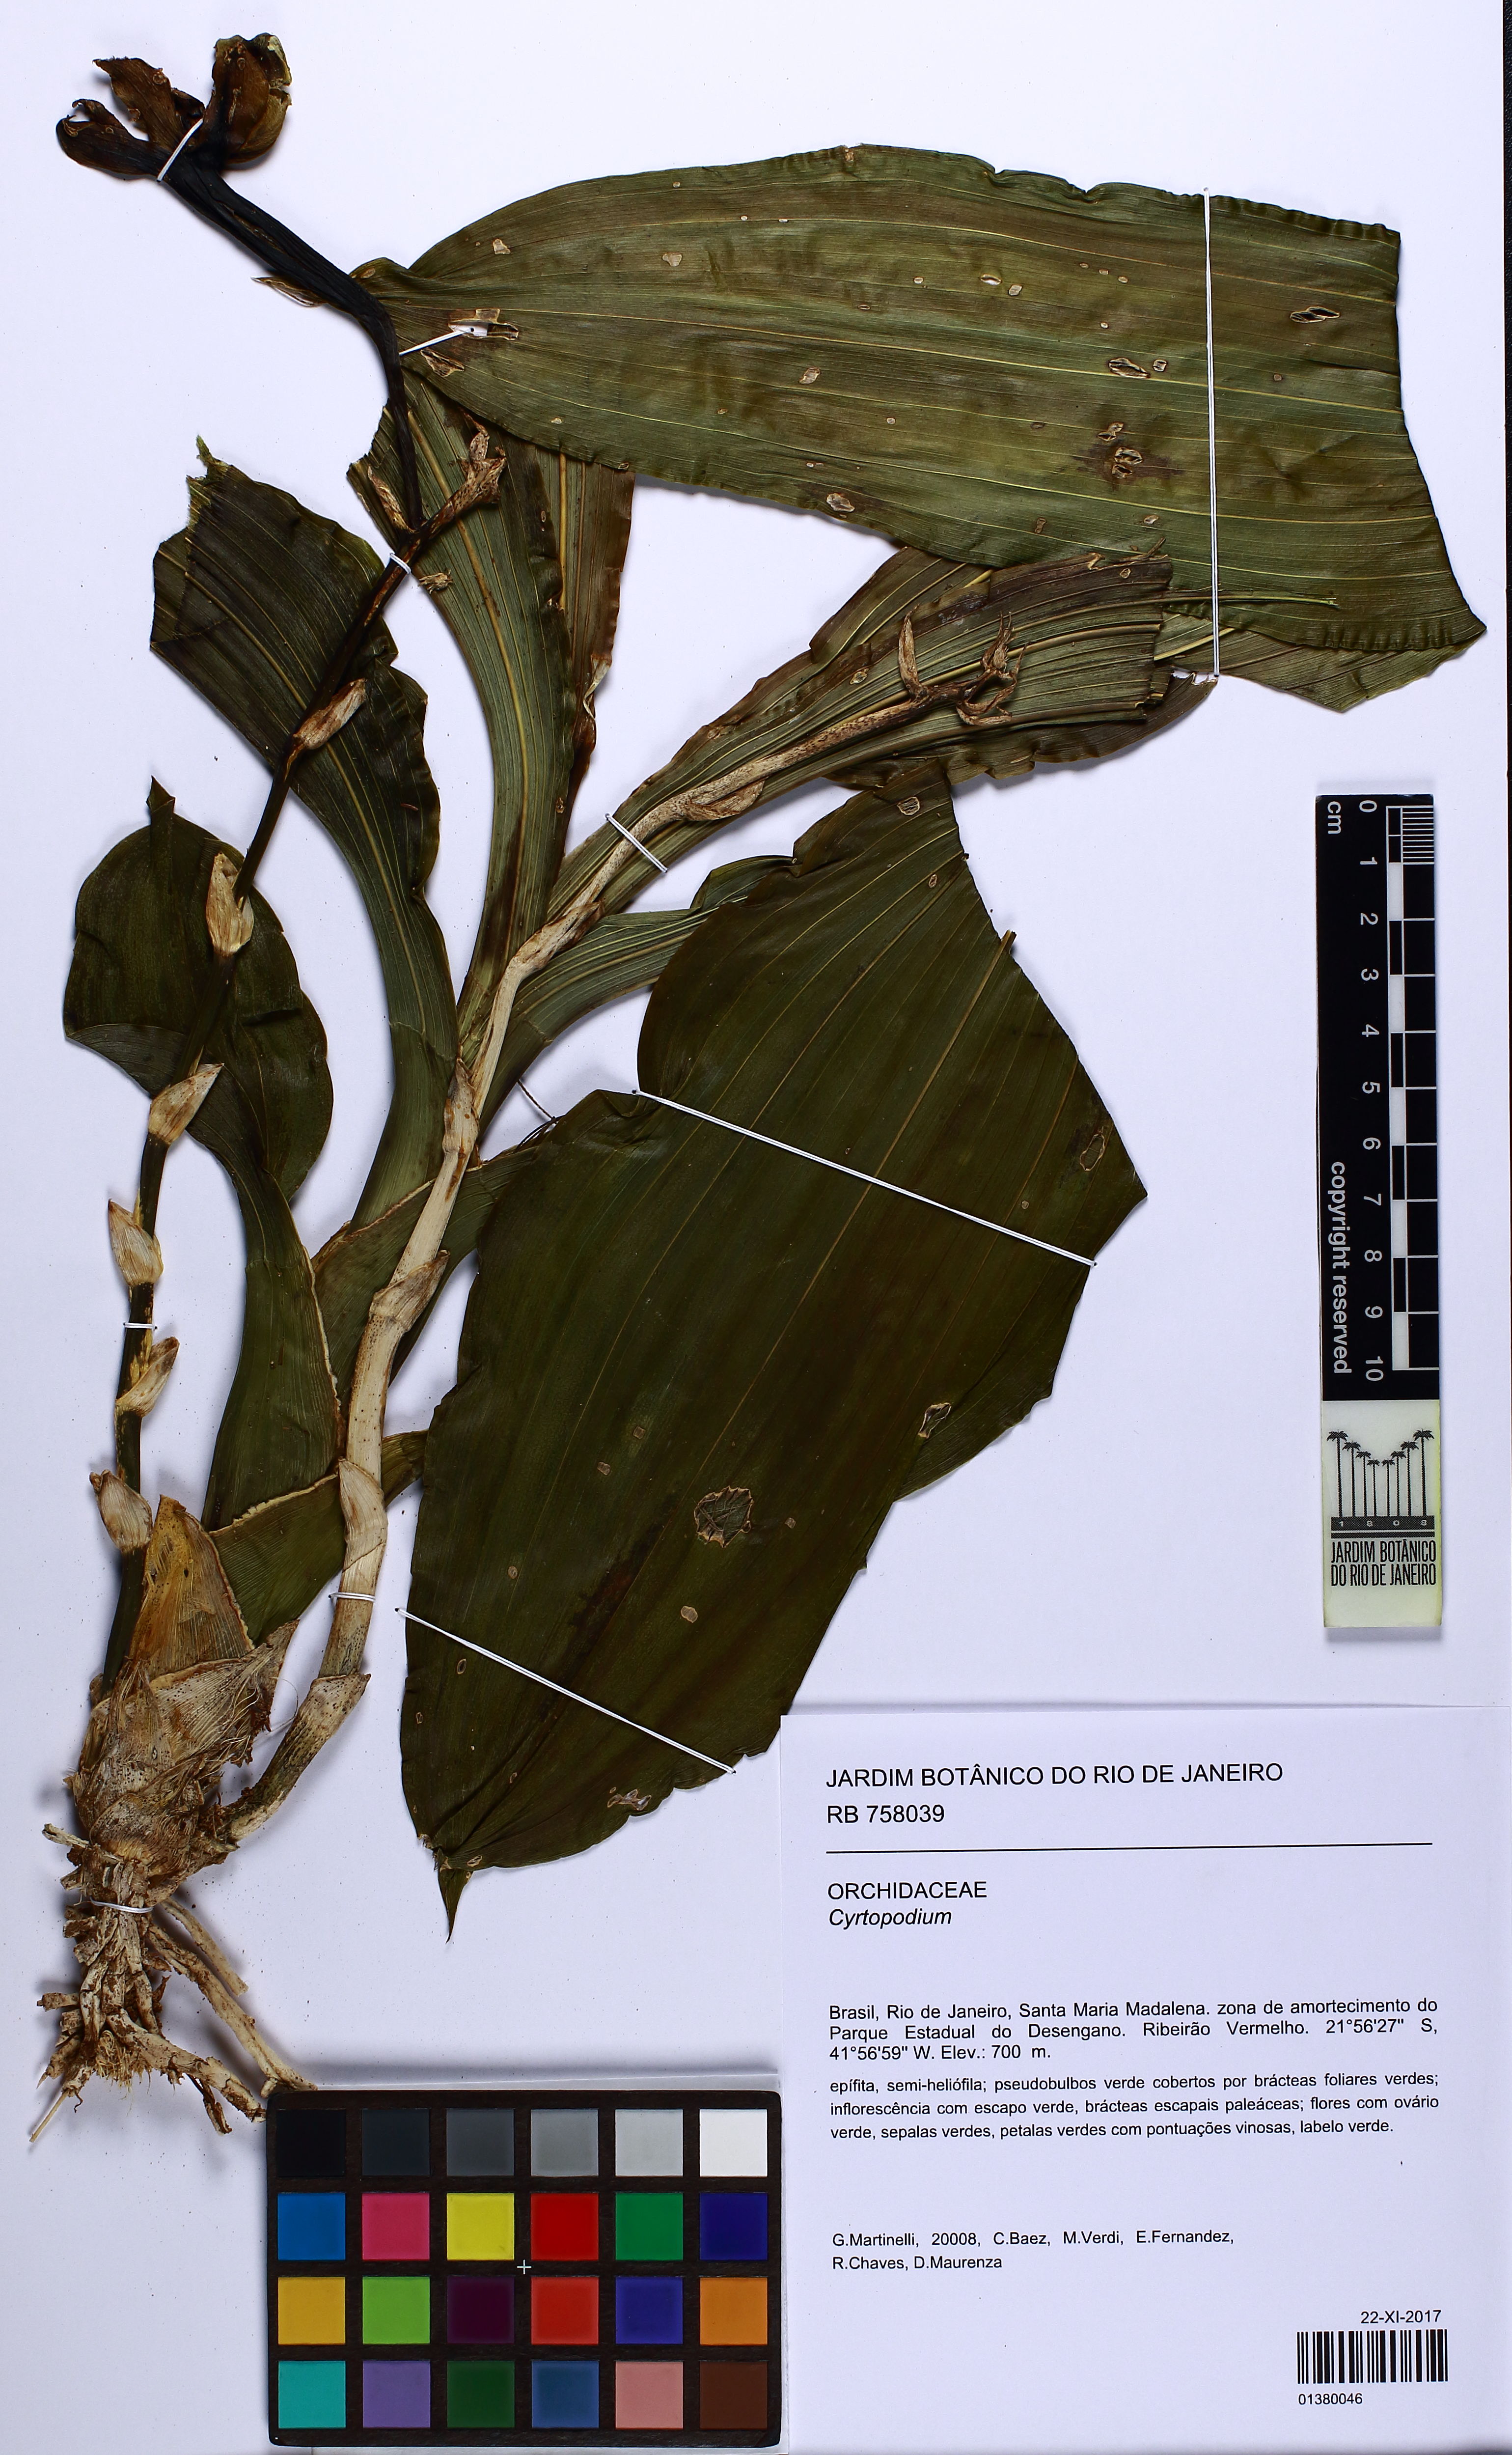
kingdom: Plantae
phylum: Tracheophyta
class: Liliopsida
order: Asparagales
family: Orchidaceae
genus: Cyrtopodium
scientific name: Cyrtopodium
